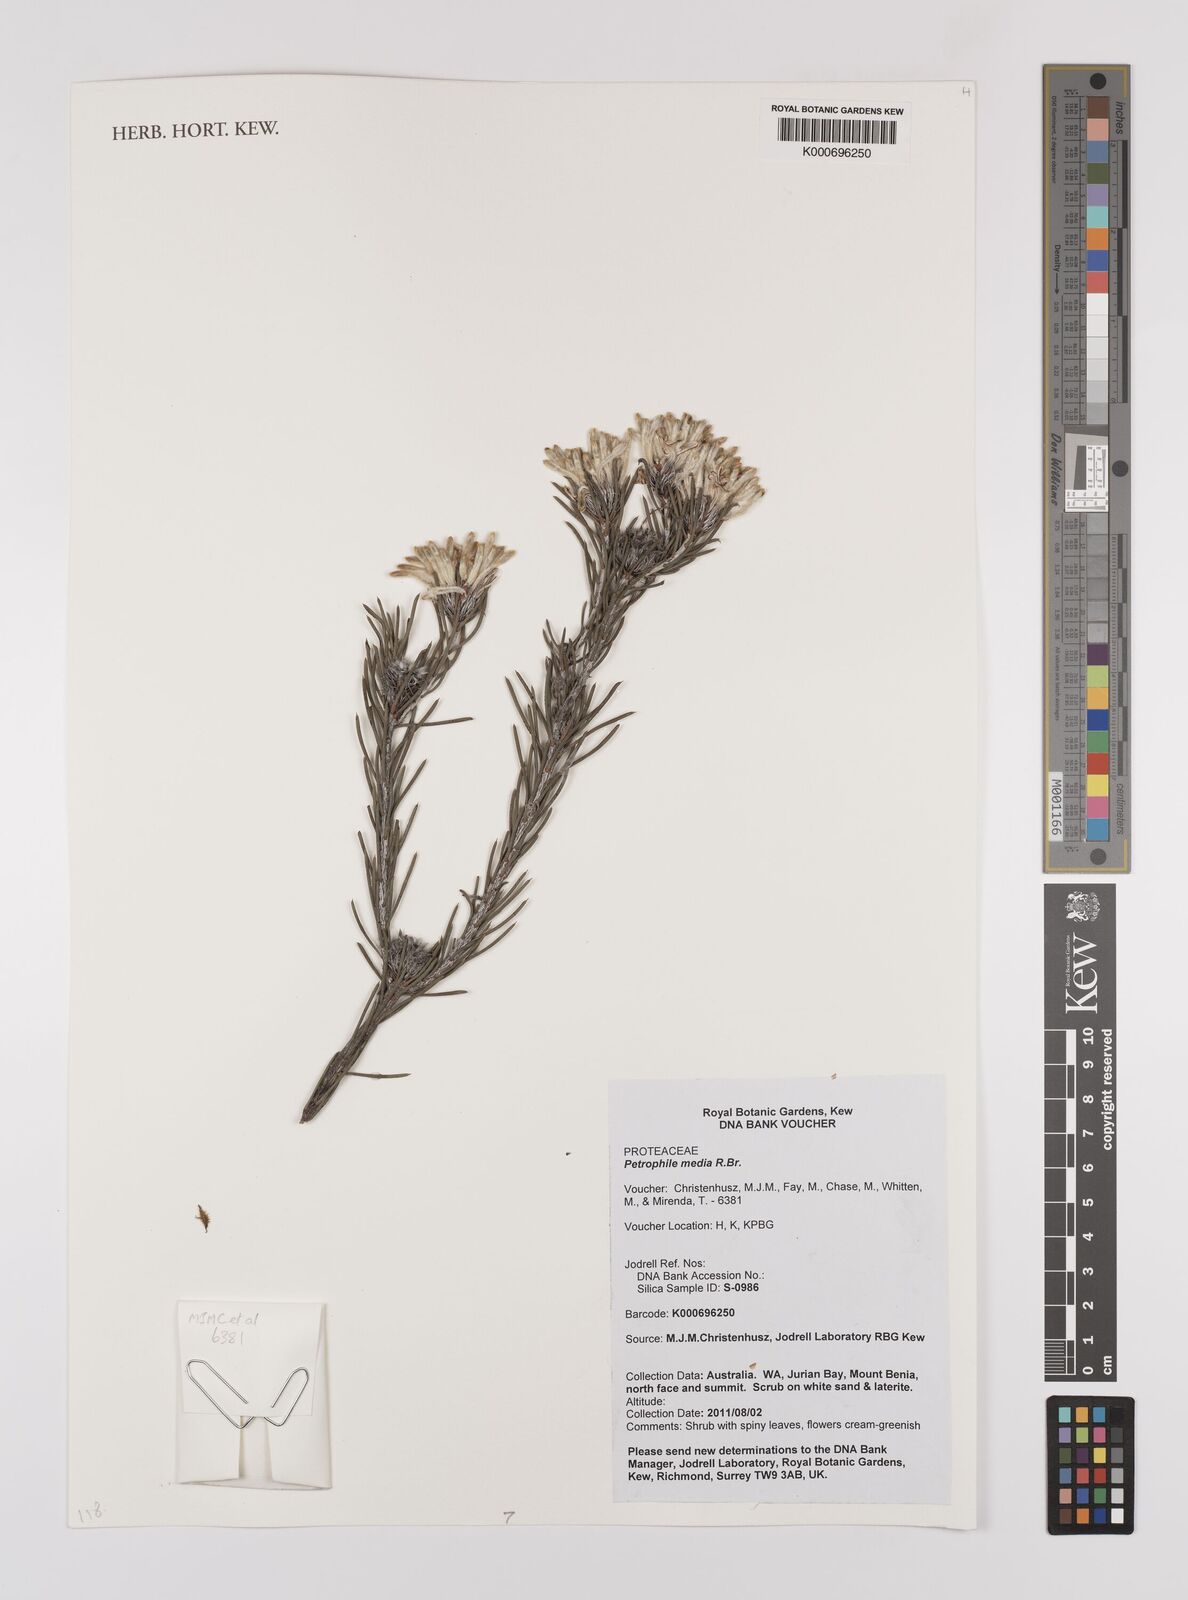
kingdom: Plantae
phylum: Tracheophyta
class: Magnoliopsida
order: Proteales
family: Proteaceae
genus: Petrophile
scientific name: Petrophile media
